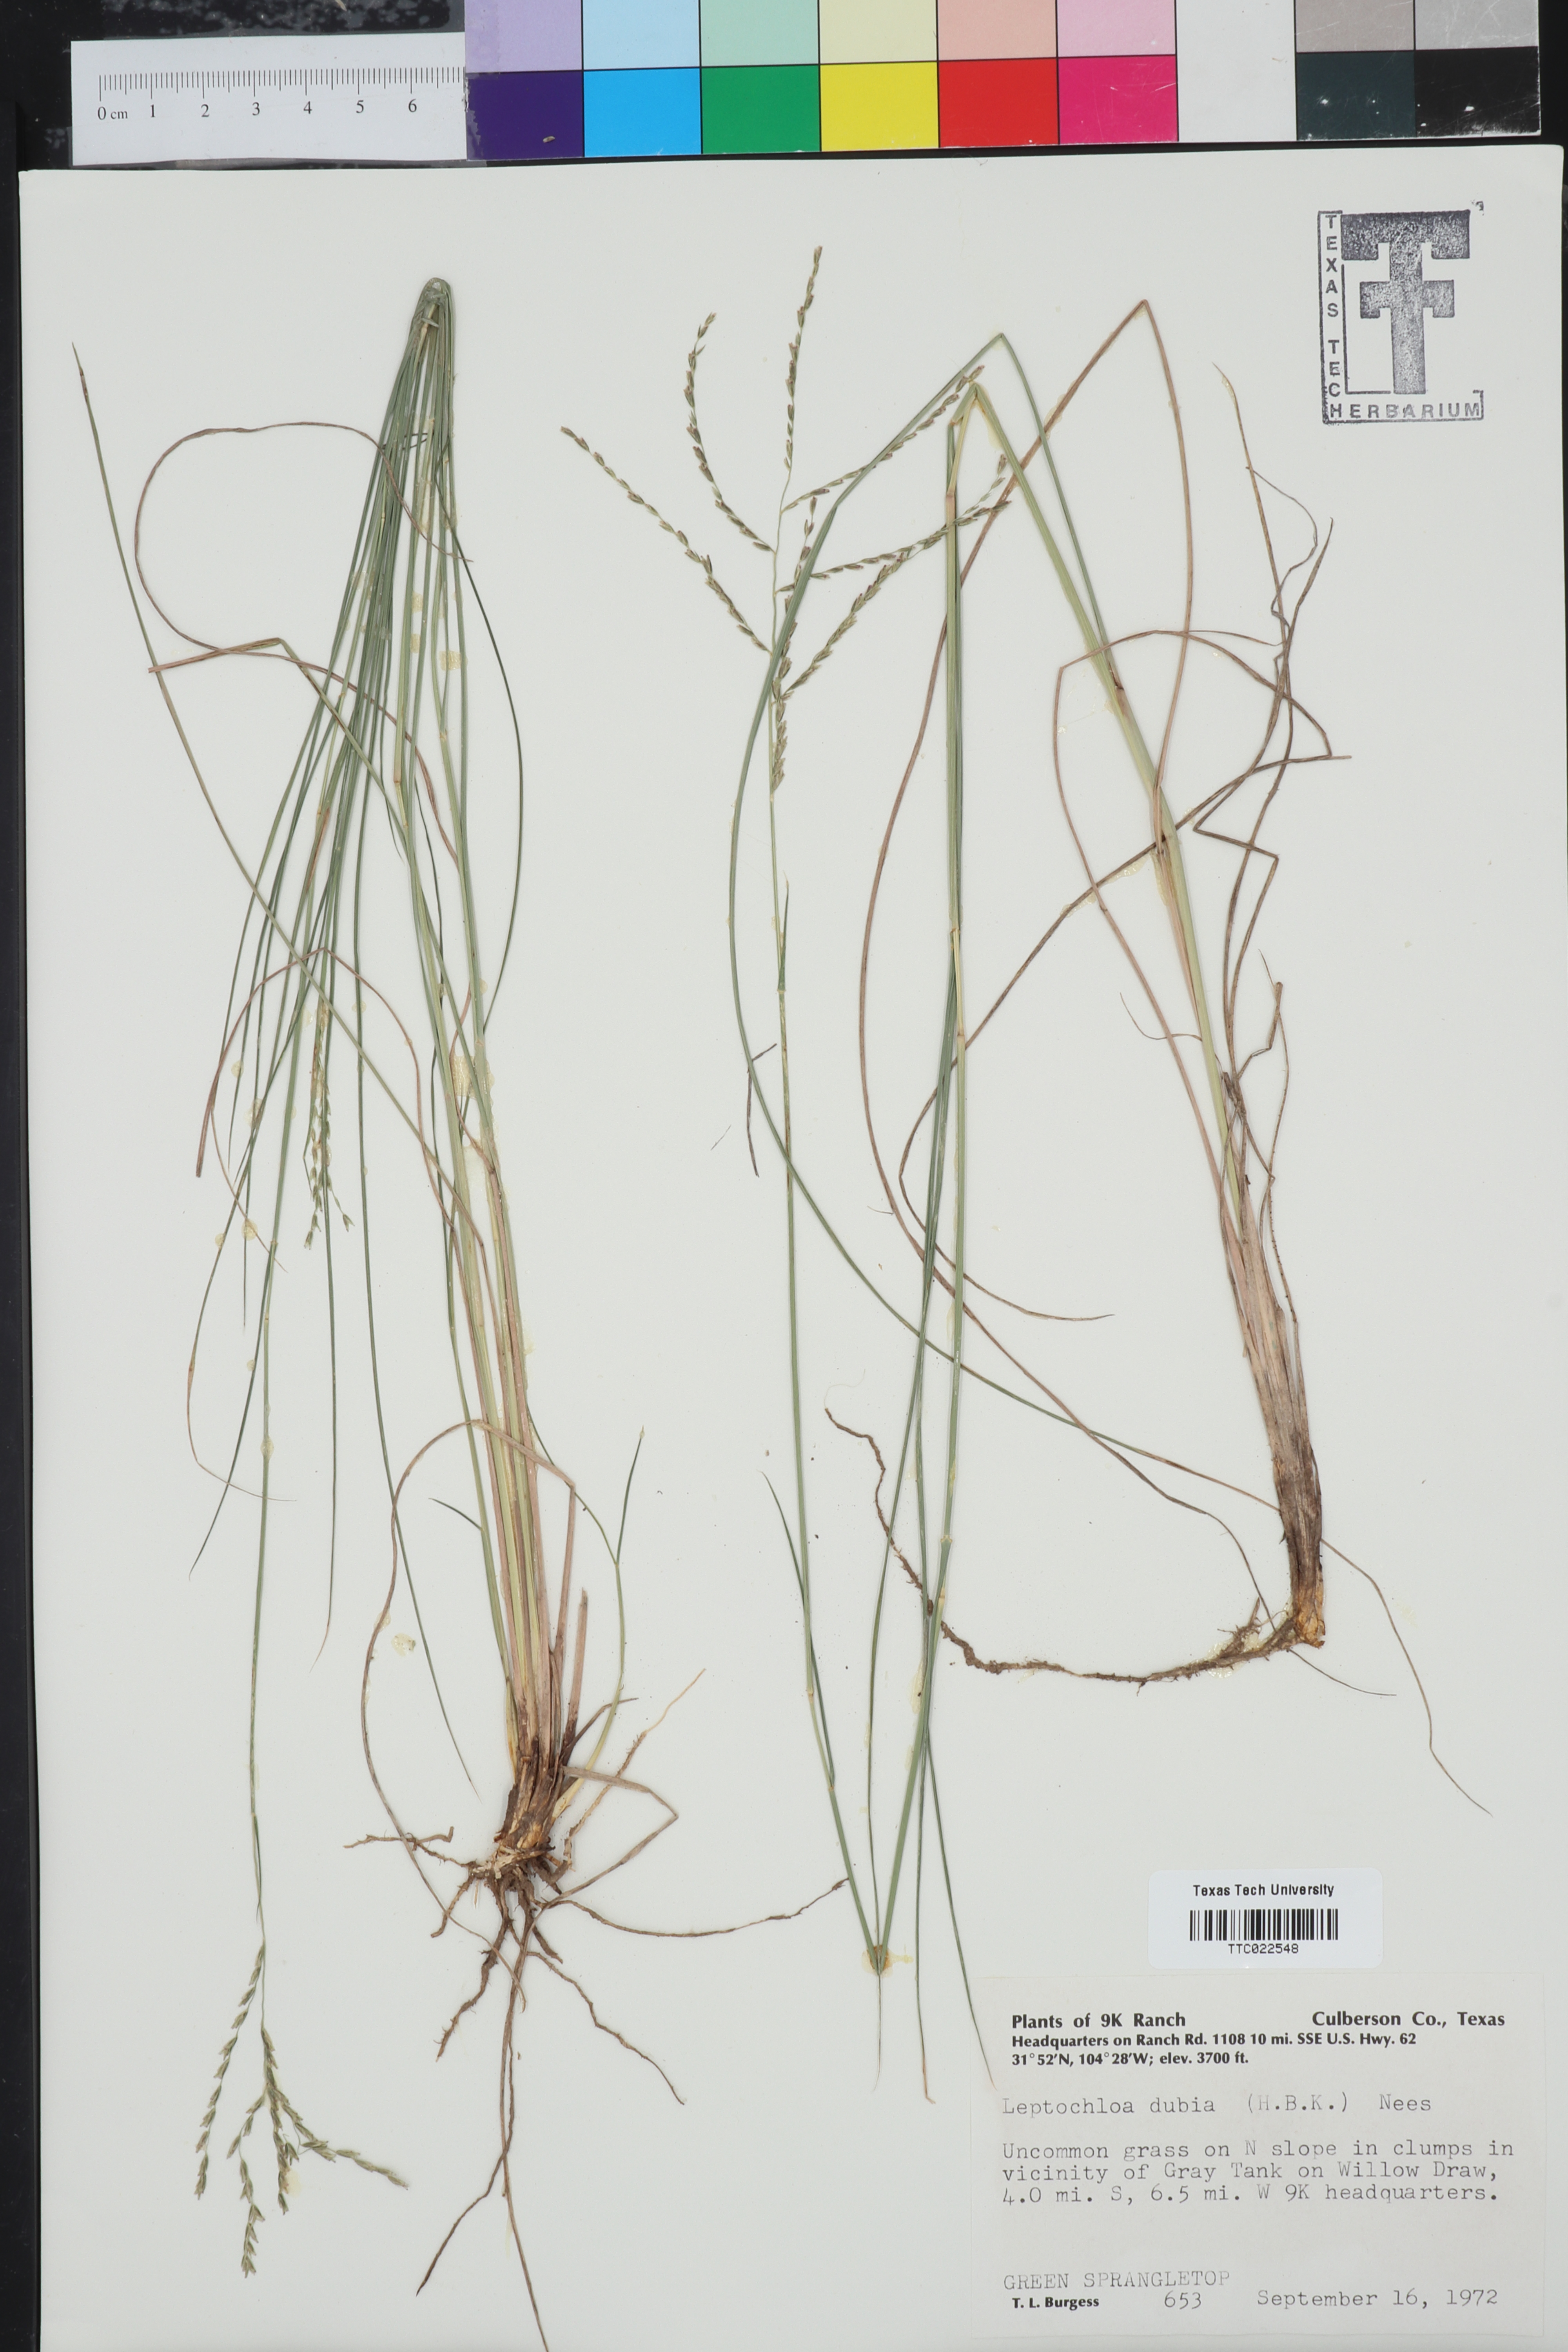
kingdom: Plantae
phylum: Tracheophyta
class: Liliopsida
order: Poales
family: Poaceae
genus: Disakisperma
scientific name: Disakisperma dubium
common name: Green sprangletop
